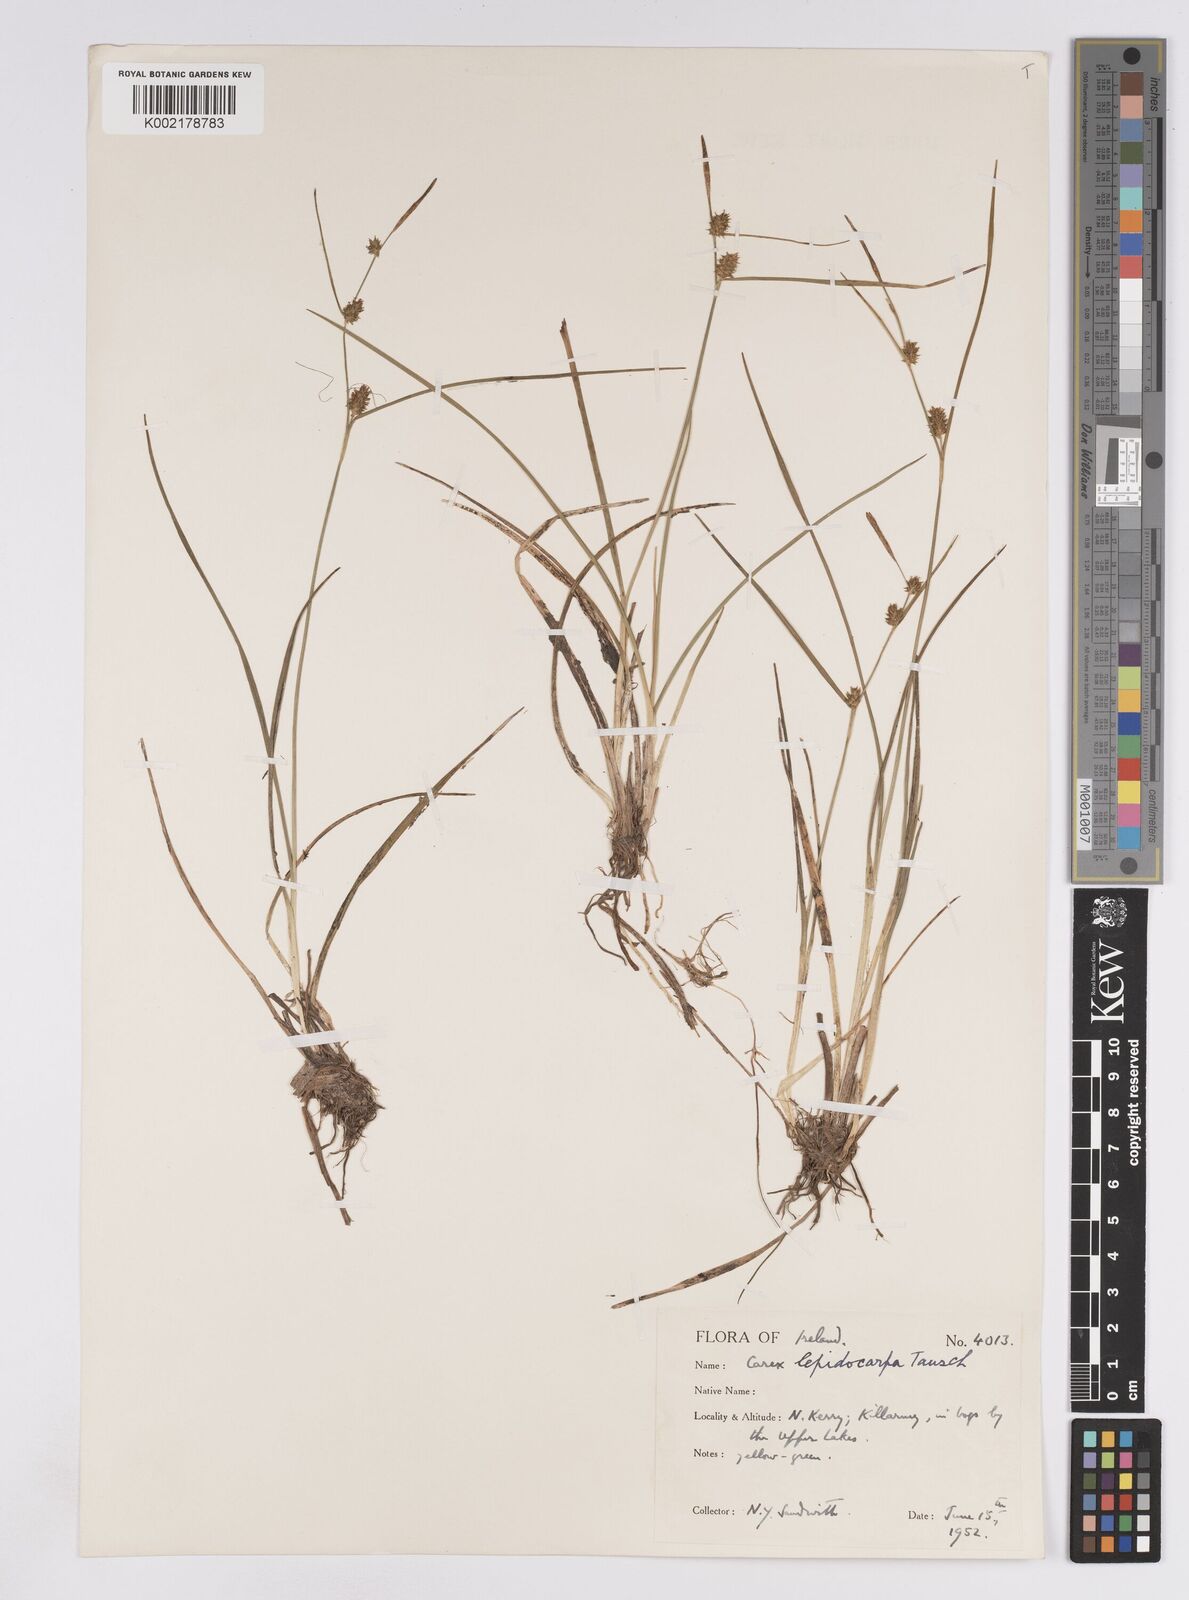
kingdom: Plantae
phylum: Tracheophyta
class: Liliopsida
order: Poales
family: Cyperaceae
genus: Carex
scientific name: Carex lepidocarpa
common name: Long-stalked yellow-sedge
